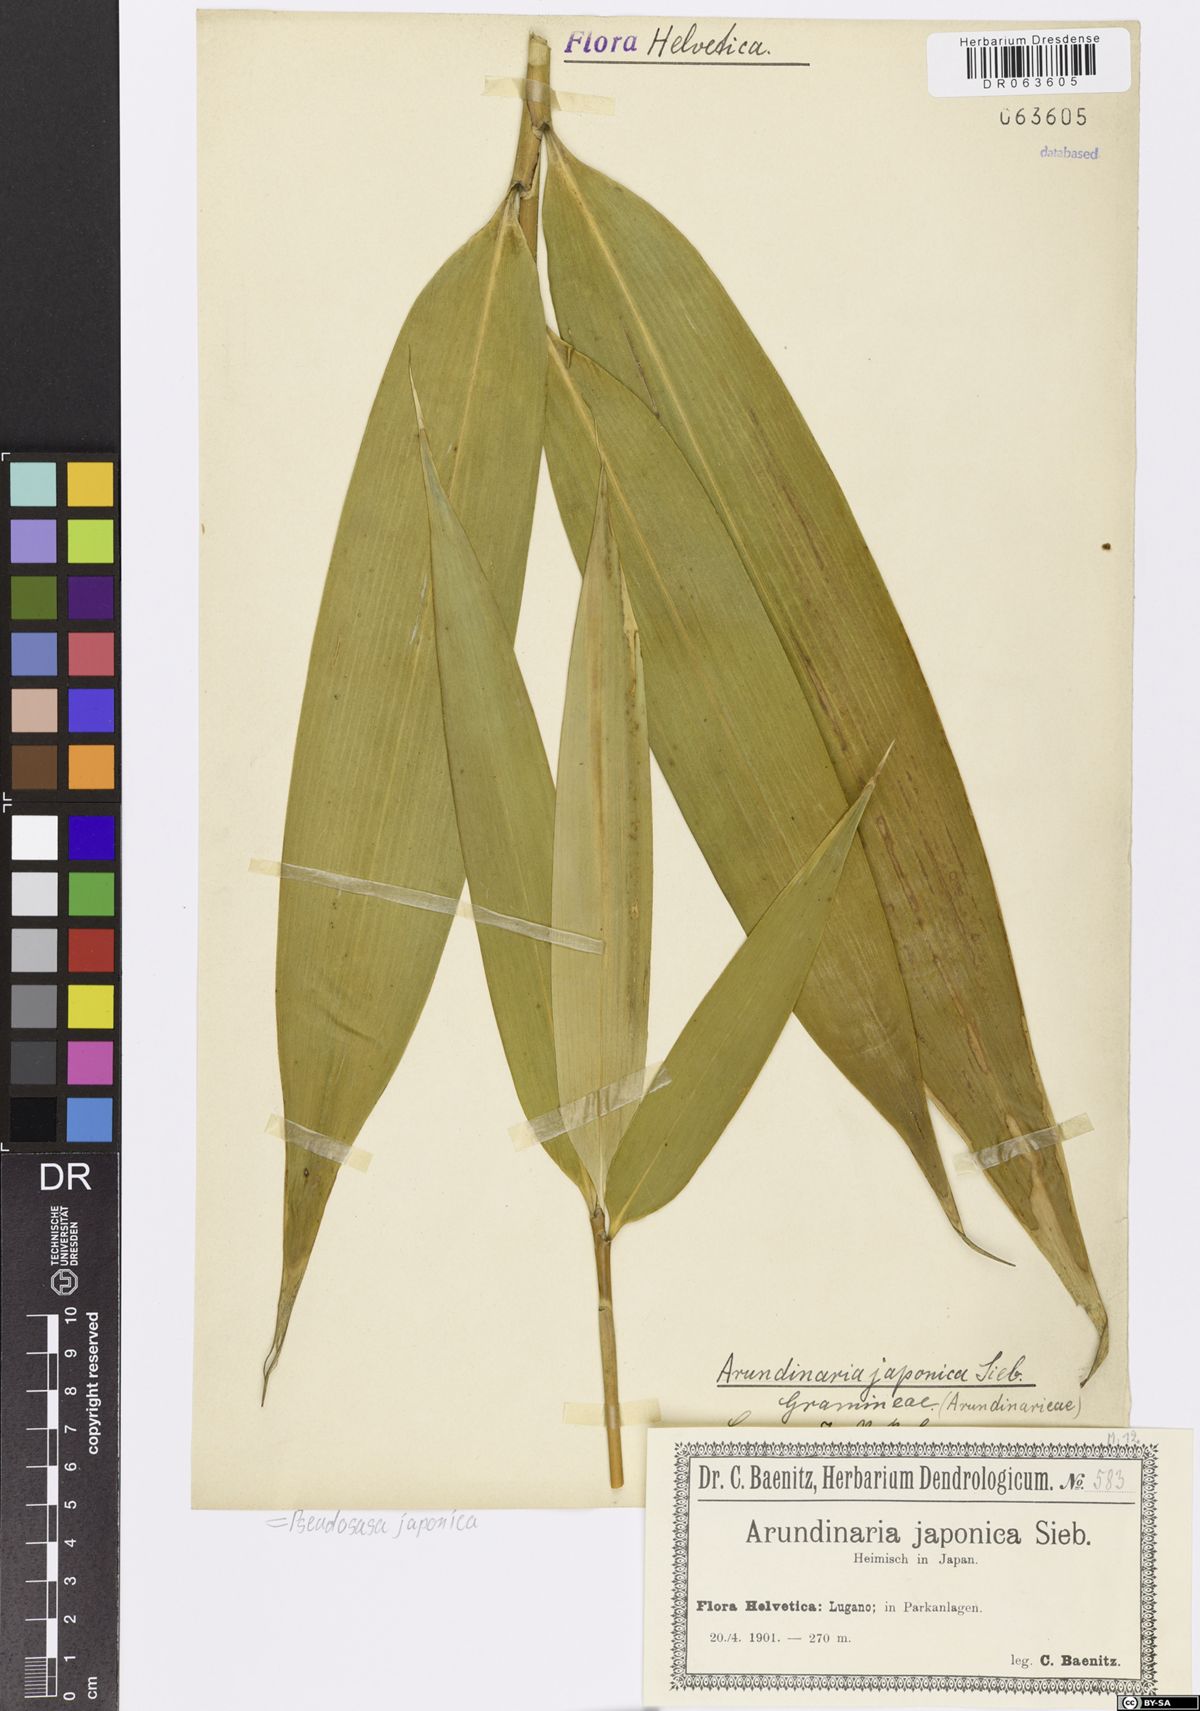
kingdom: Plantae
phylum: Tracheophyta
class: Liliopsida
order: Poales
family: Poaceae
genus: Pseudosasa
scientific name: Pseudosasa japonica
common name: Arrow bamboo
